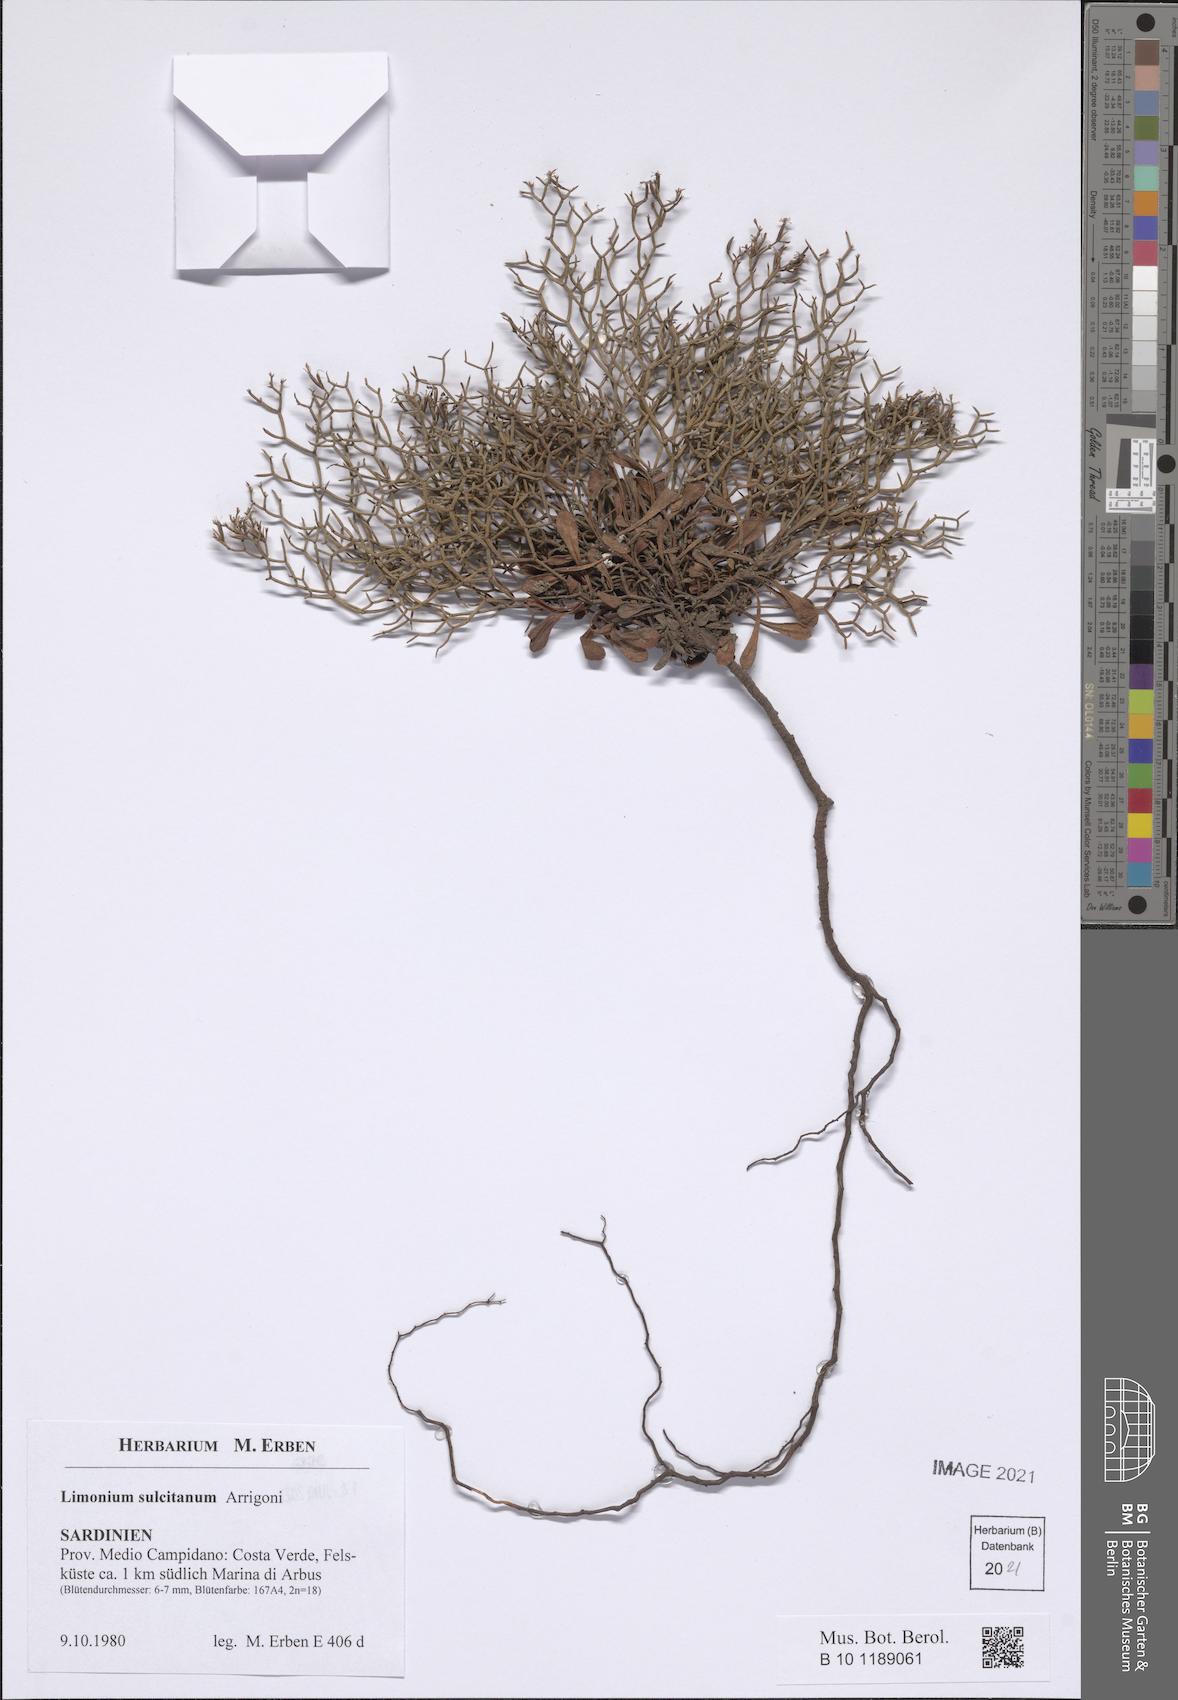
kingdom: Plantae
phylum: Tracheophyta
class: Magnoliopsida
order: Caryophyllales
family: Plumbaginaceae
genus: Limonium
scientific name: Limonium sulcitanum
